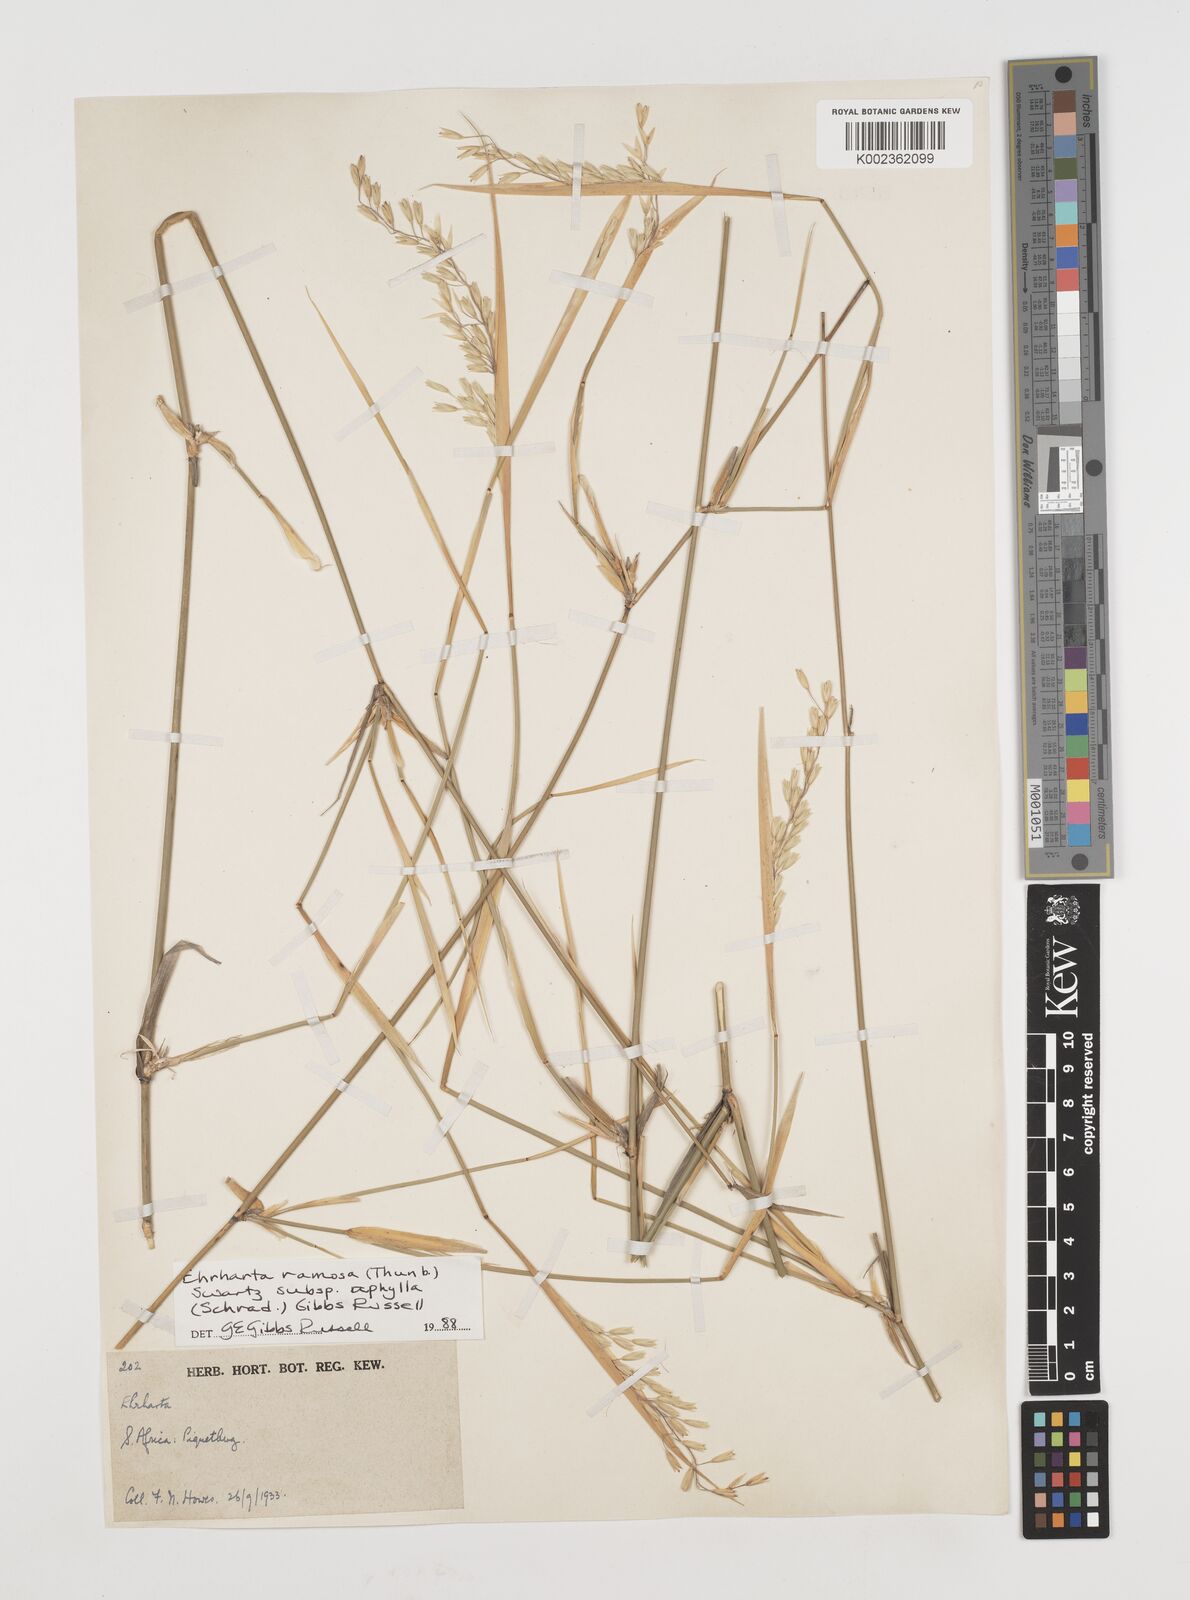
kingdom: Plantae
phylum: Tracheophyta
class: Liliopsida
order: Poales
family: Poaceae
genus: Ehrharta
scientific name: Ehrharta digyna
